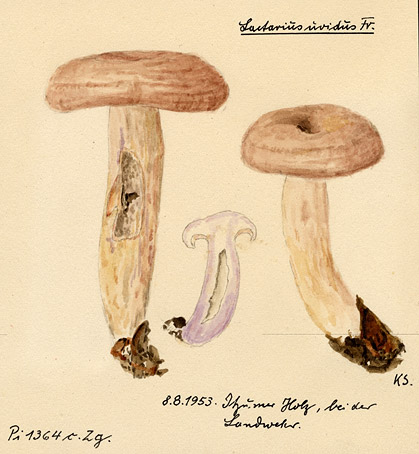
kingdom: Fungi
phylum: Basidiomycota
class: Agaricomycetes
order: Russulales
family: Russulaceae
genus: Lactarius
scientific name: Lactarius uvidus
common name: Shiner milkcap
